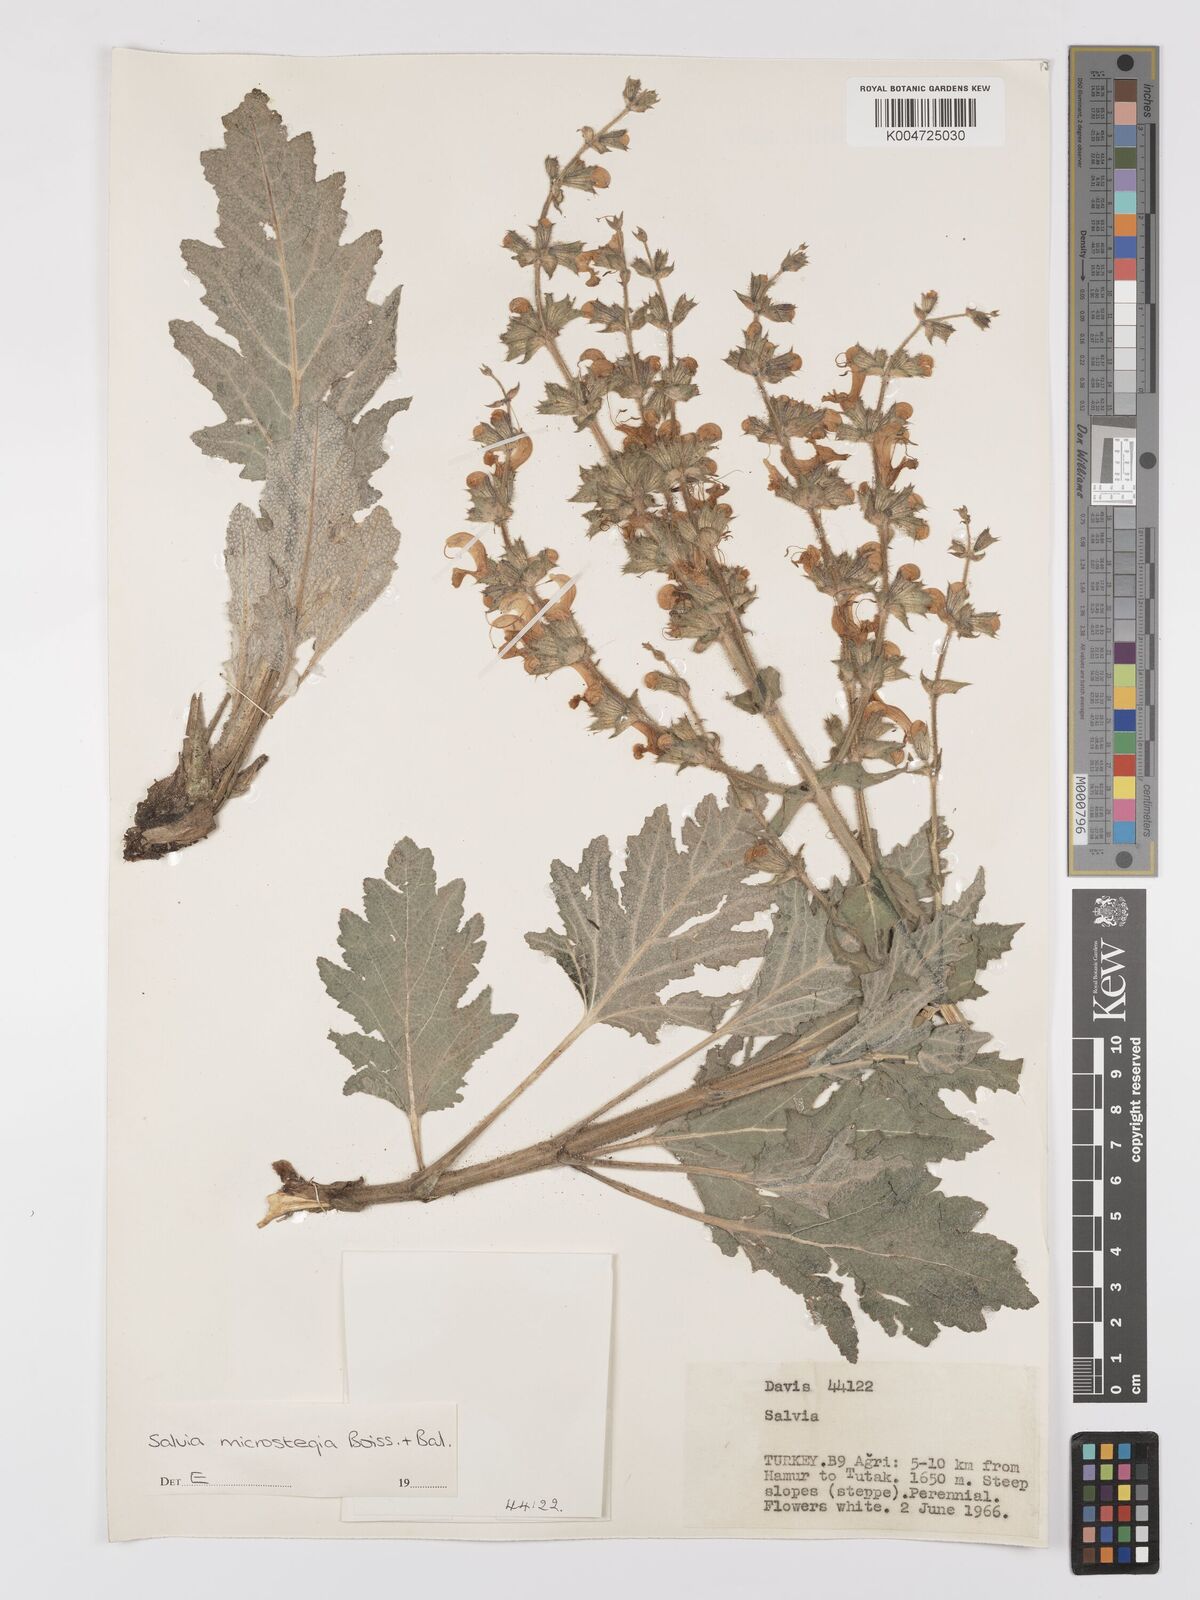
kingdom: Plantae
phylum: Tracheophyta
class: Magnoliopsida
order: Lamiales
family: Lamiaceae
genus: Salvia
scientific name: Salvia microstegia
